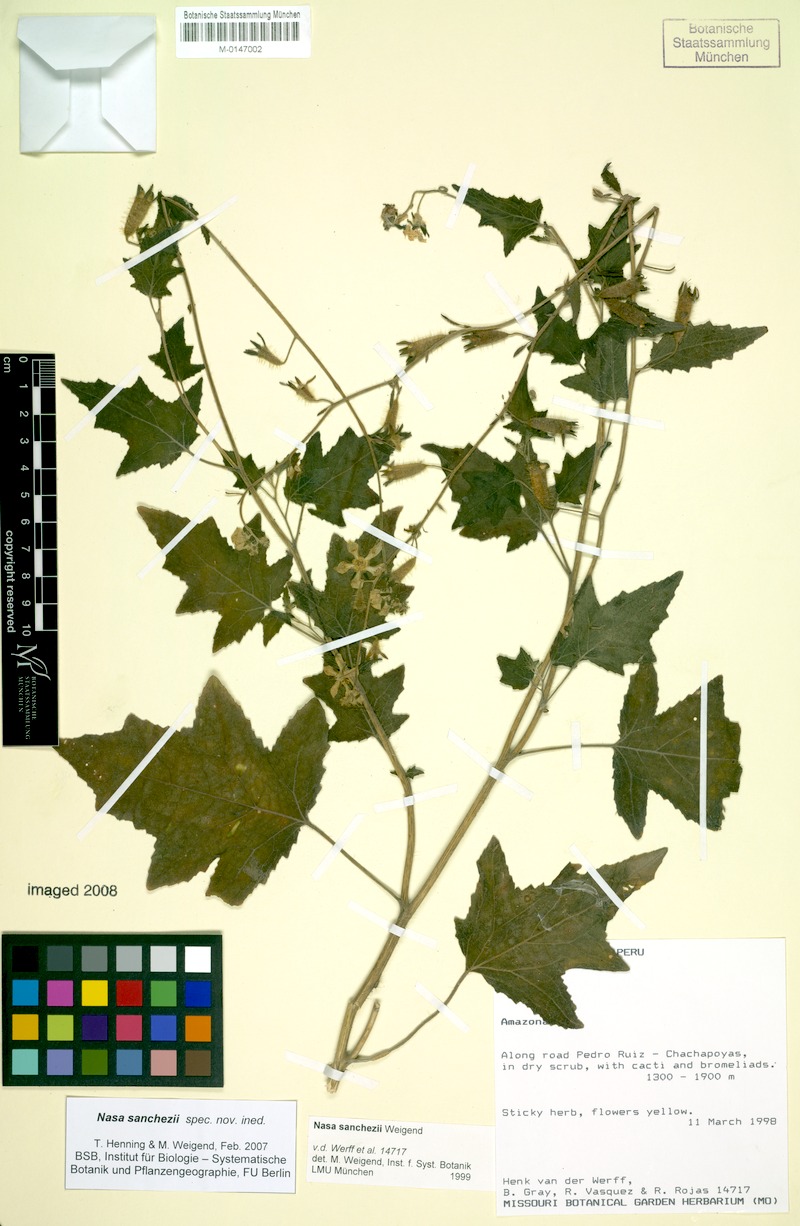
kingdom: Plantae
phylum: Tracheophyta
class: Magnoliopsida
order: Cornales
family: Loasaceae
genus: Nasa
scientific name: Nasa sanchezii
